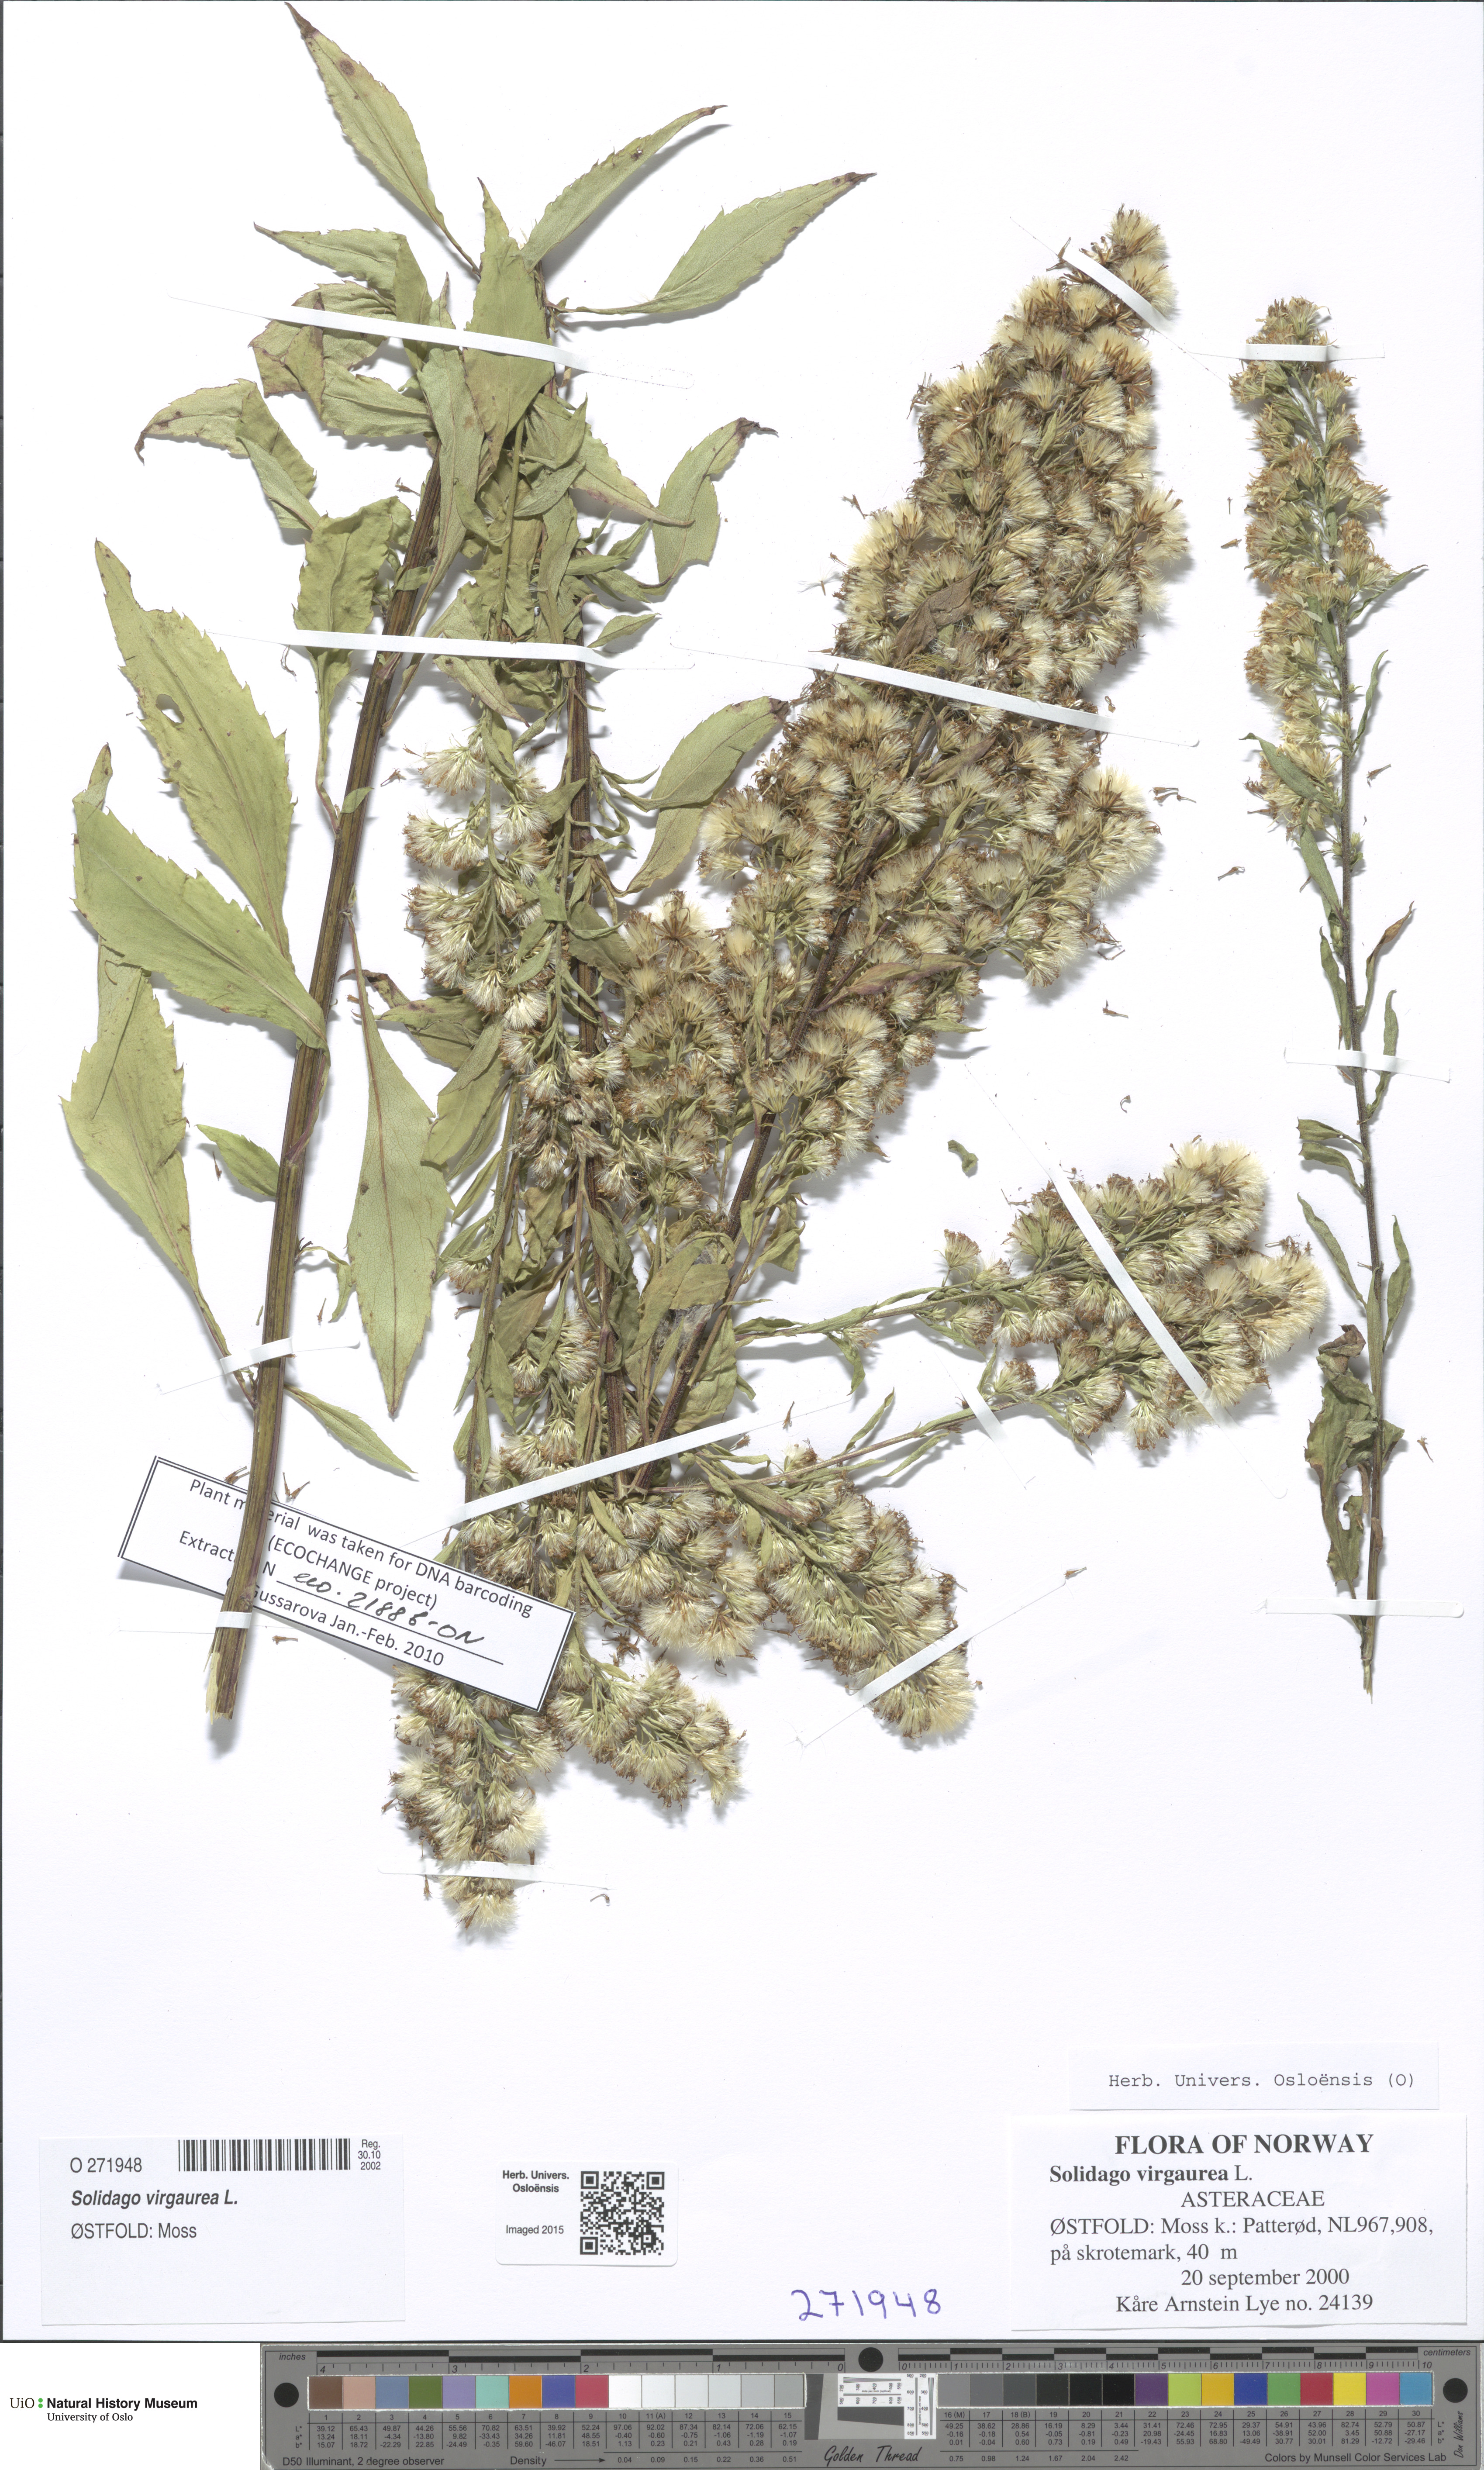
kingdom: Plantae
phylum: Tracheophyta
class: Magnoliopsida
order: Asterales
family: Asteraceae
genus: Solidago
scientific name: Solidago virgaurea
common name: Goldenrod
